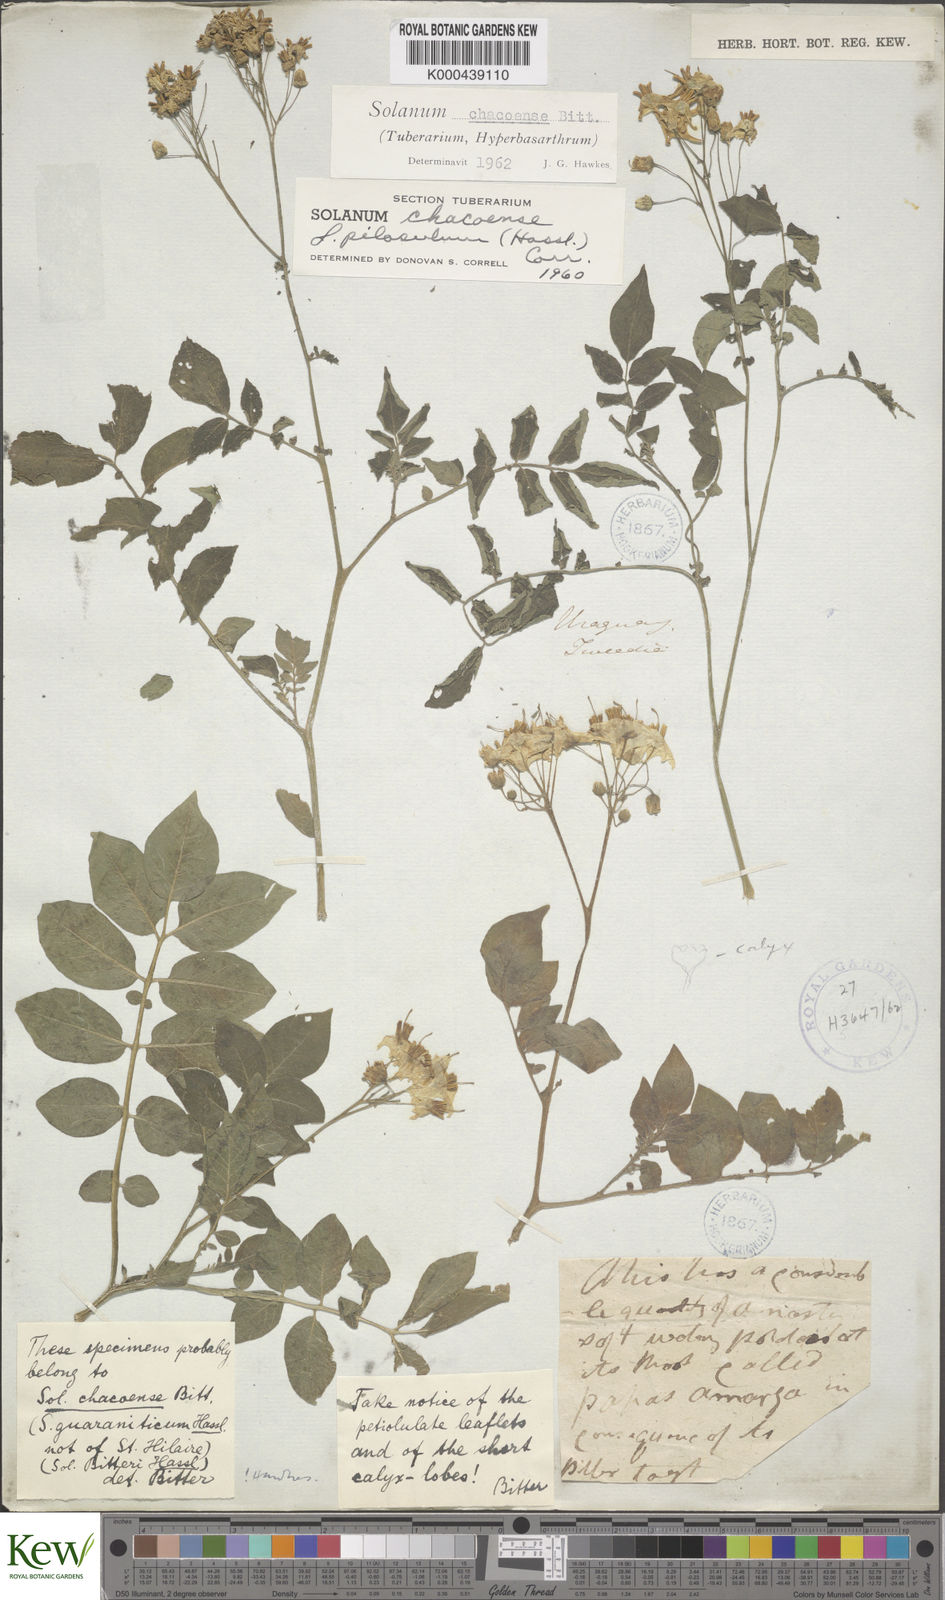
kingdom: Plantae
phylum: Tracheophyta
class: Magnoliopsida
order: Solanales
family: Solanaceae
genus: Solanum
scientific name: Solanum chacoense
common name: Chaco potato
